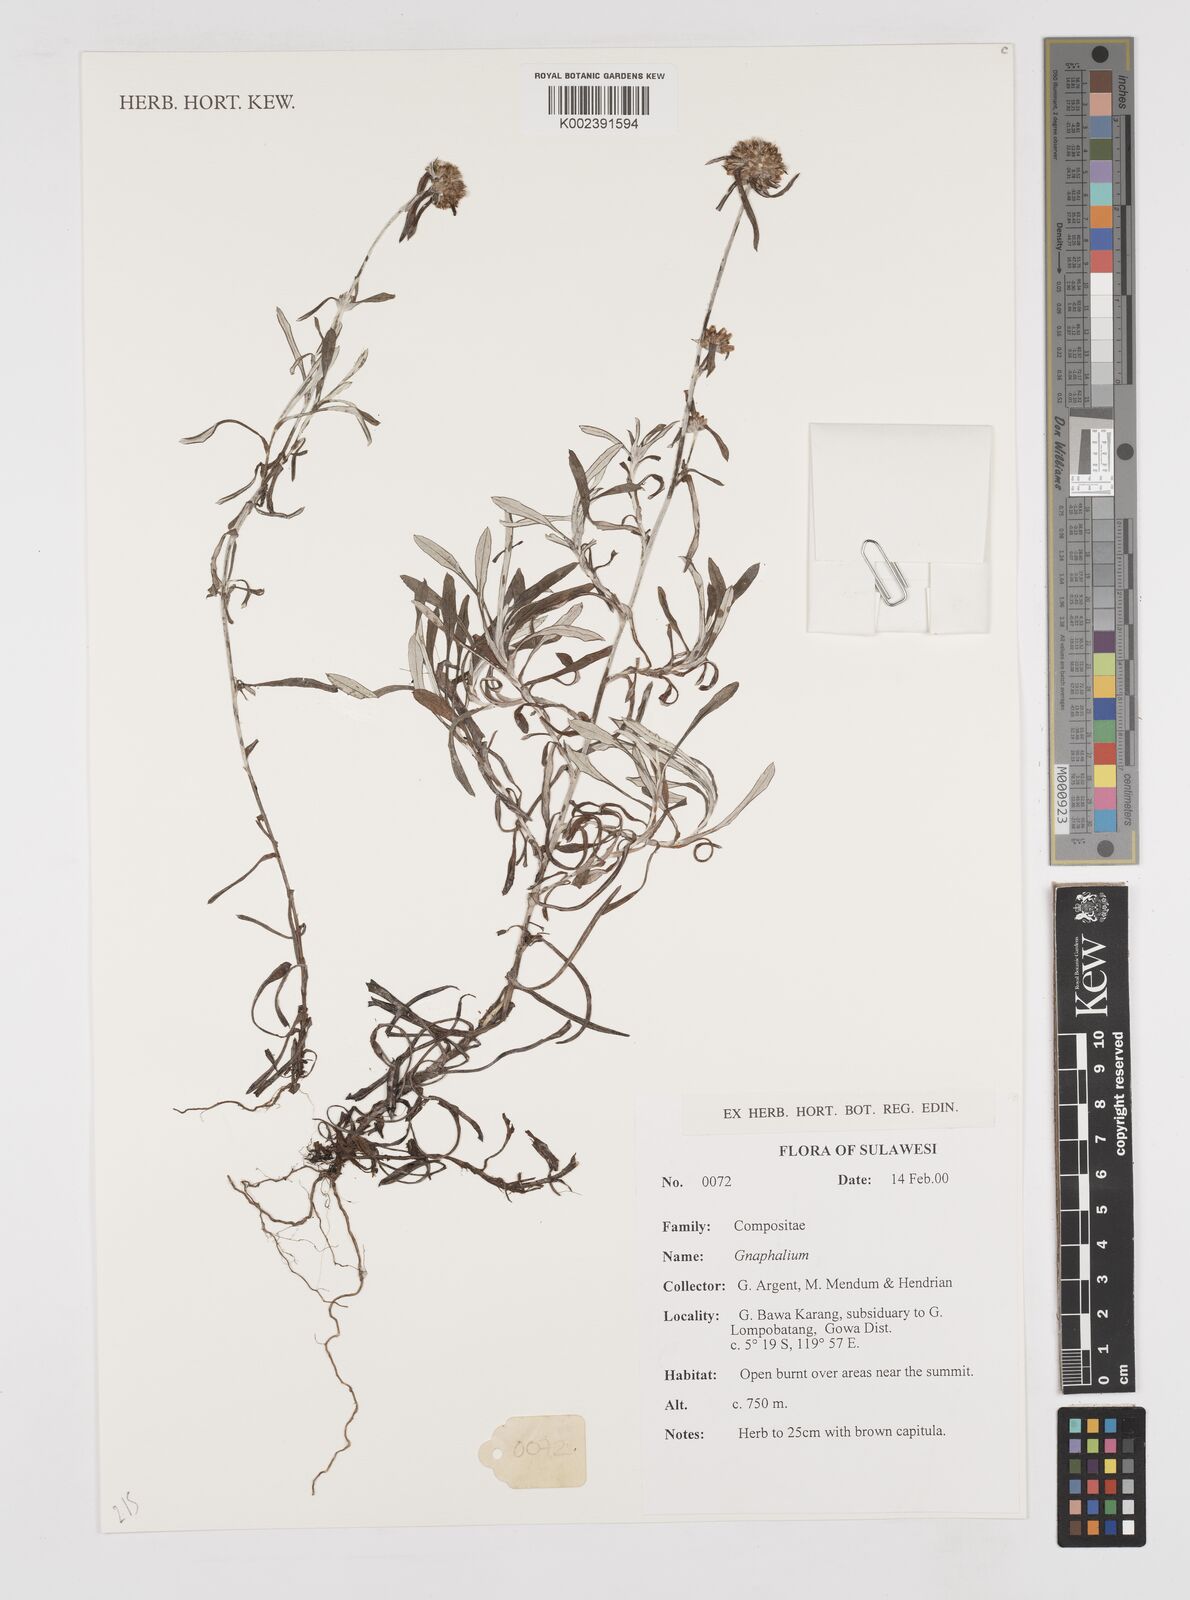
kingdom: Plantae
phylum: Tracheophyta
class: Magnoliopsida
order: Asterales
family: Asteraceae
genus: Gnaphalium
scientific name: Gnaphalium
